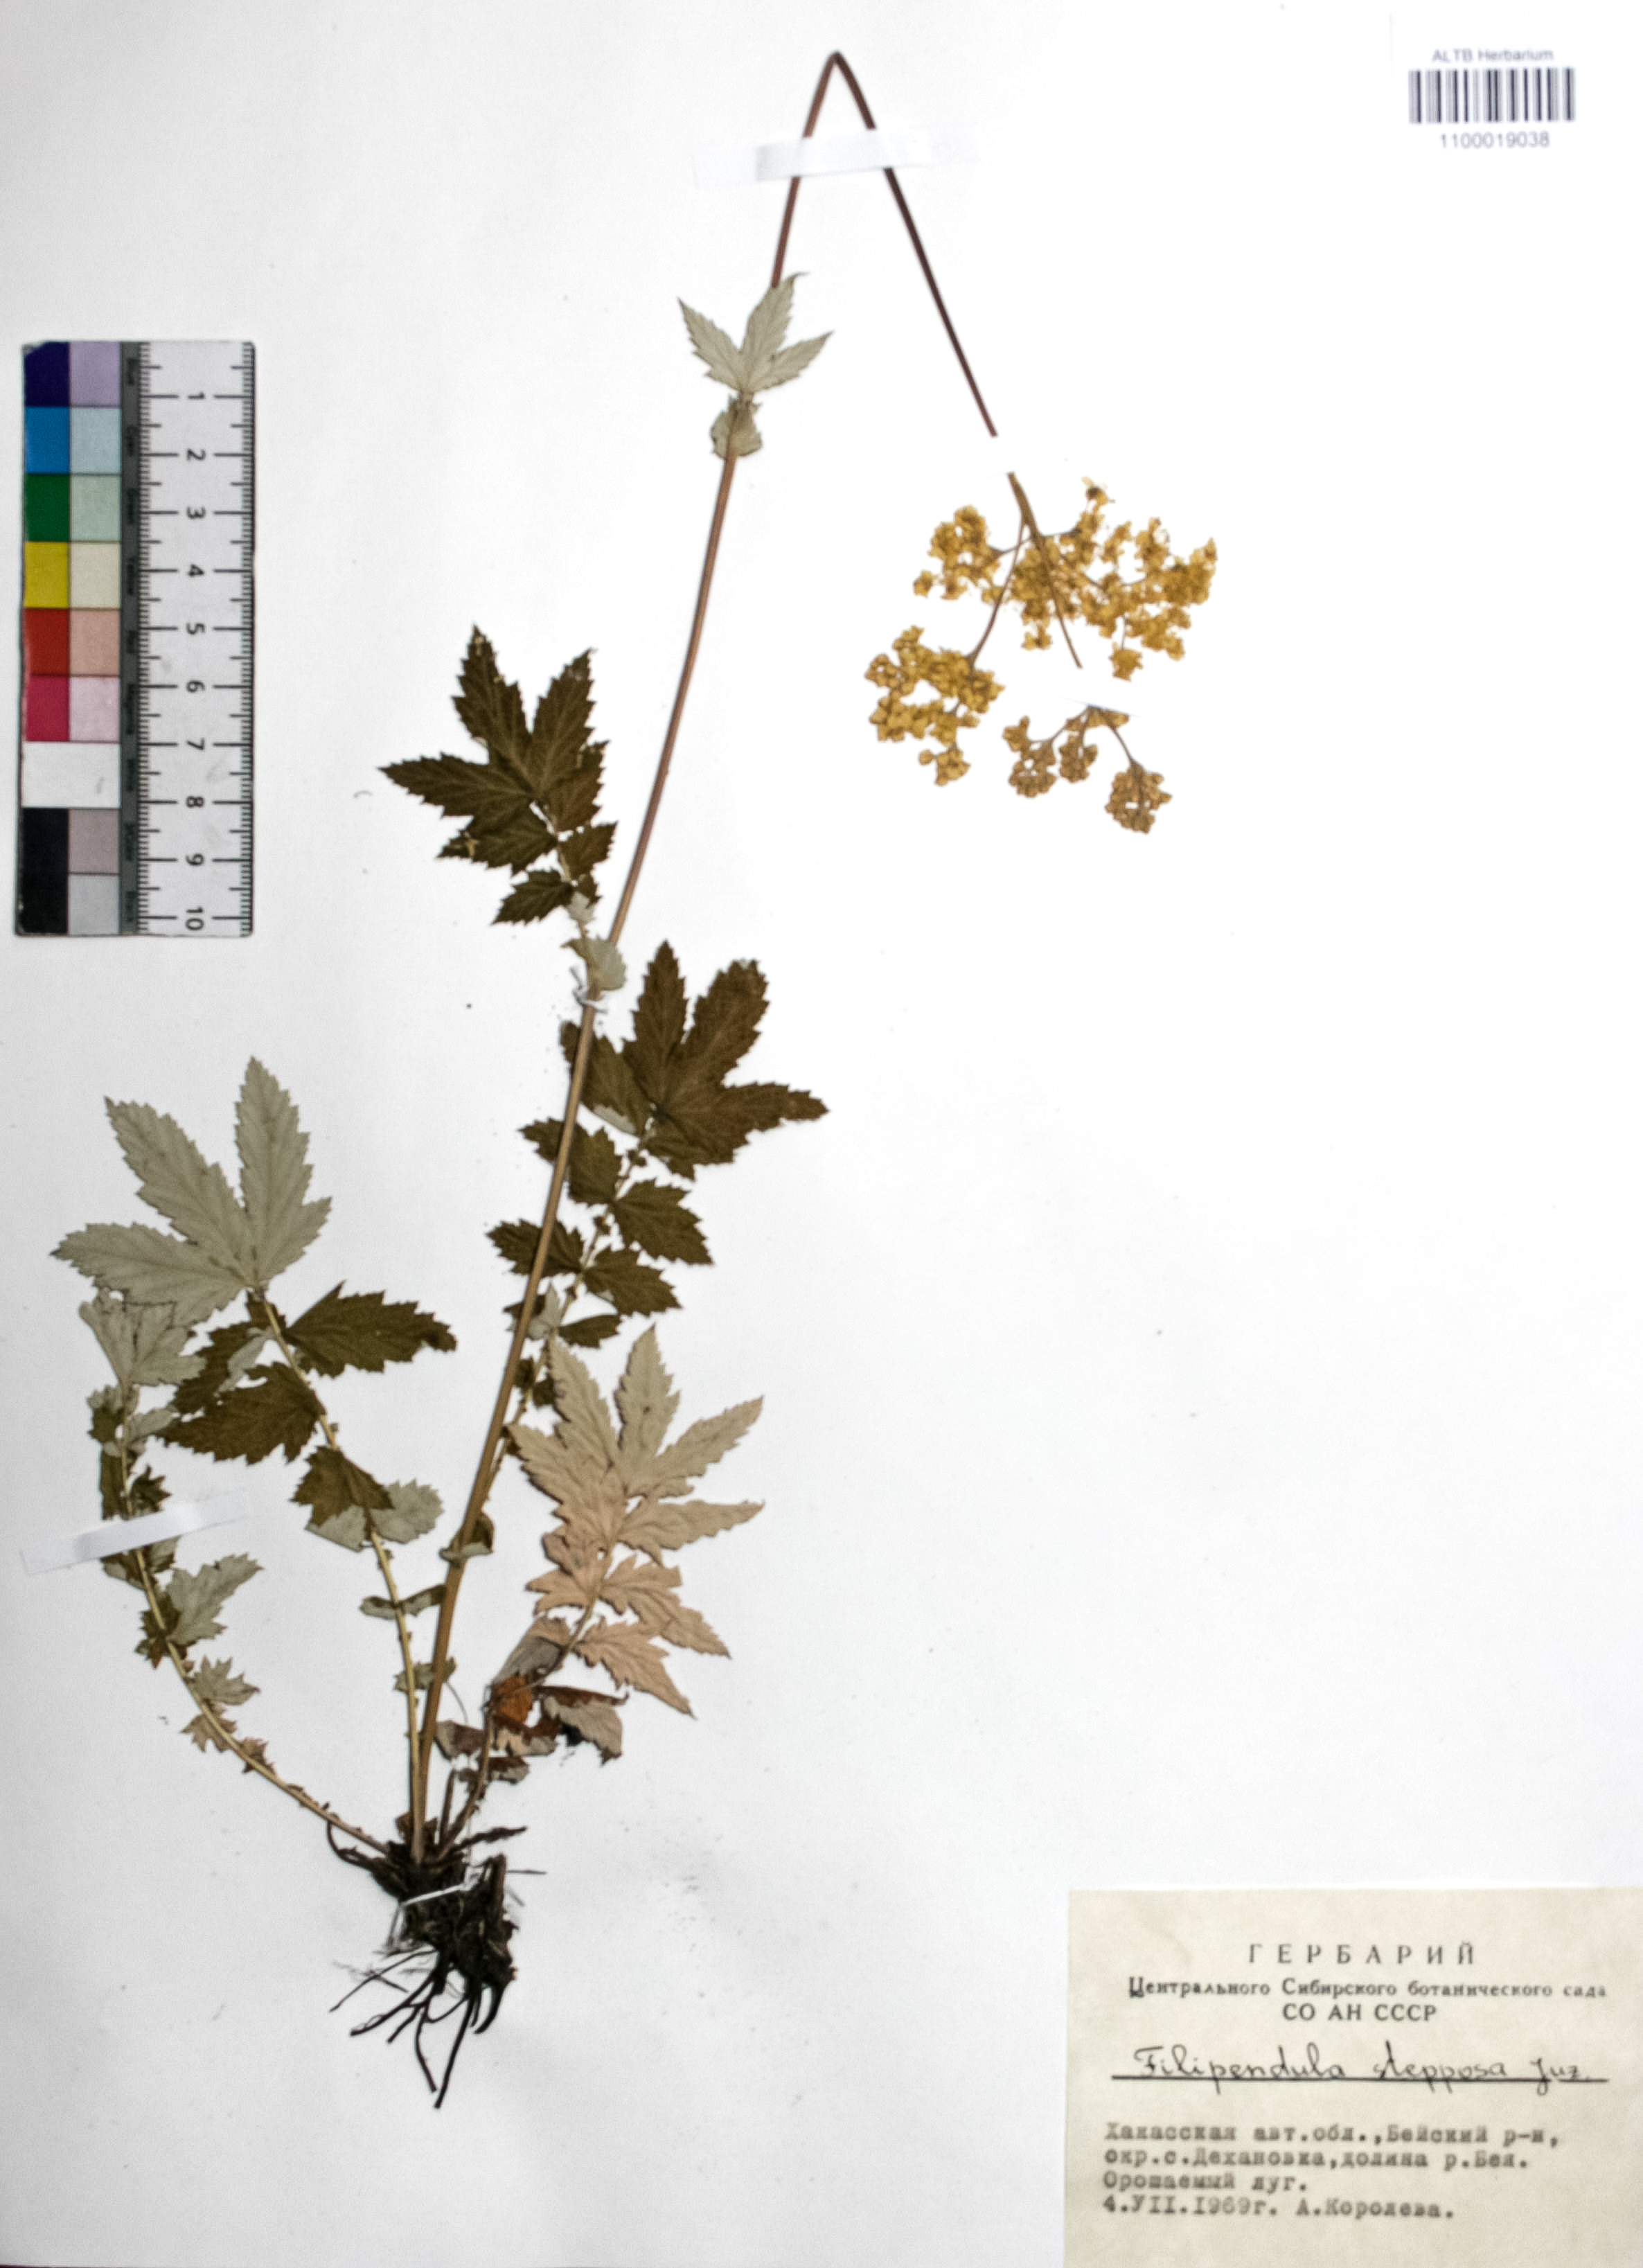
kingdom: Plantae
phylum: Tracheophyta
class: Magnoliopsida
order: Rosales
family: Rosaceae
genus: Filipendula
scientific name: Filipendula ulmaria
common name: Meadowsweet
